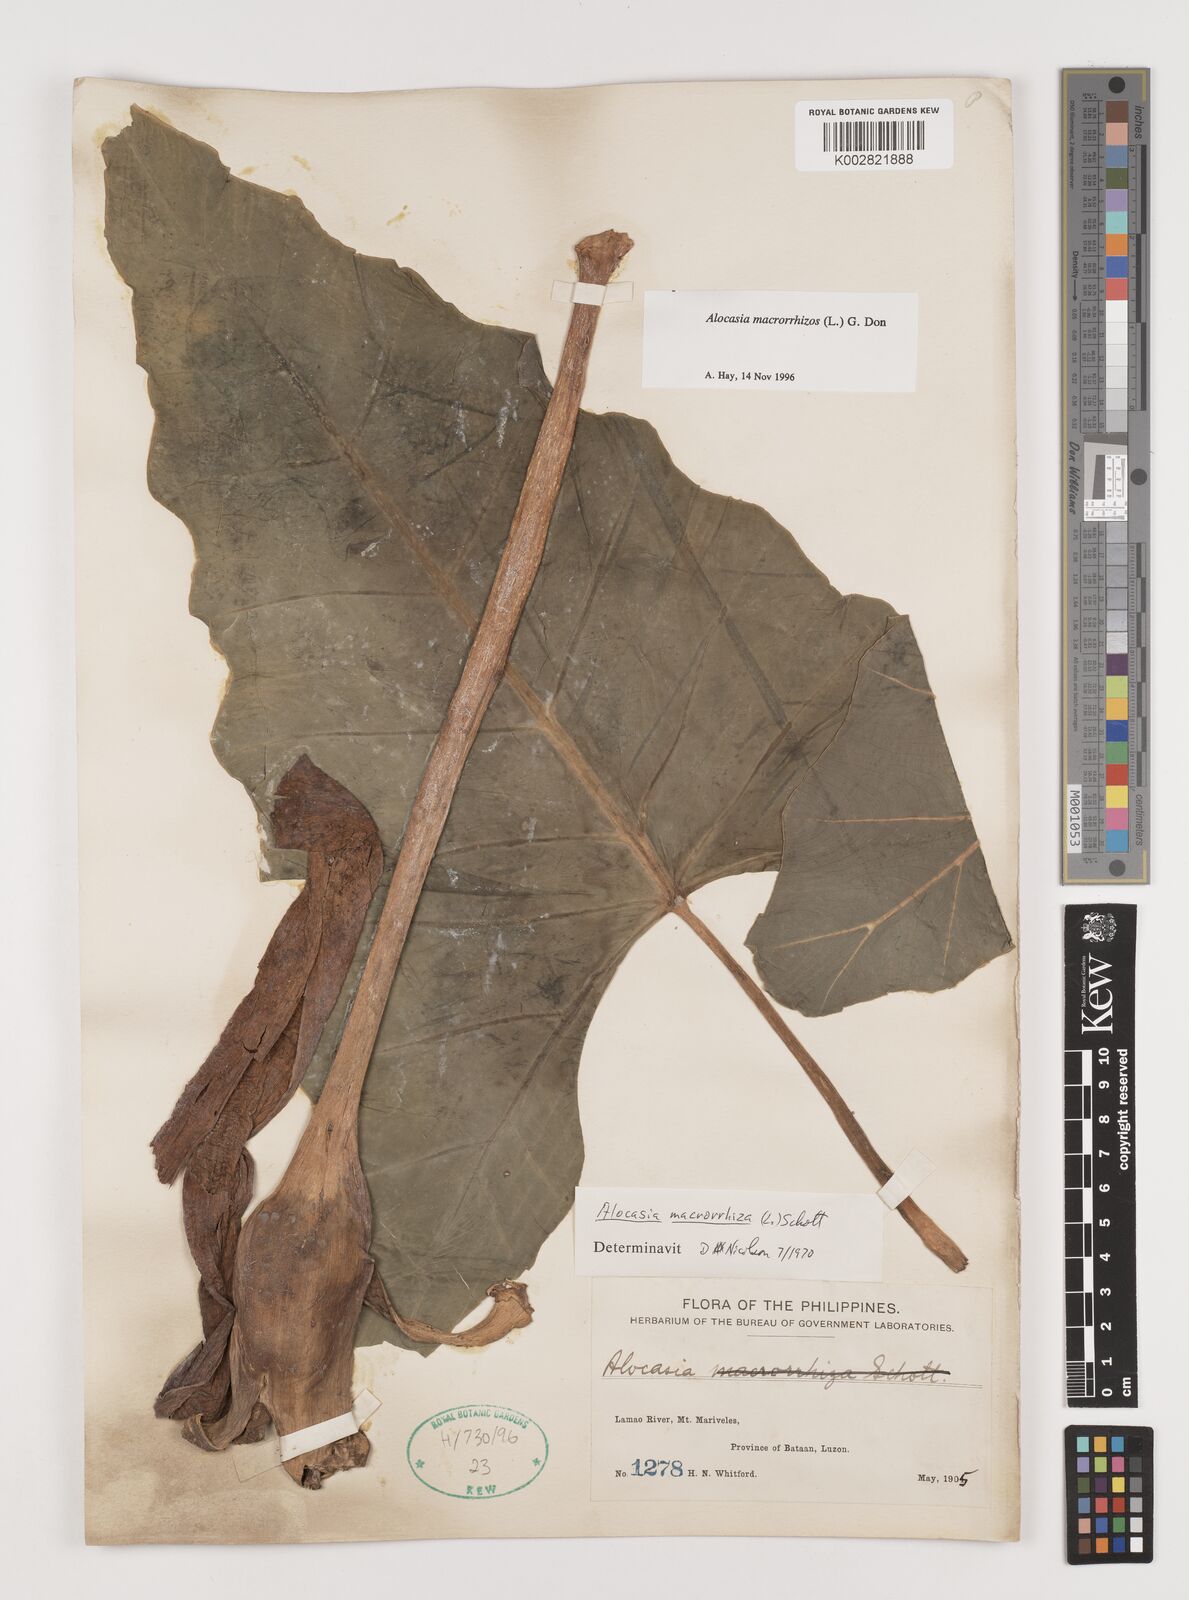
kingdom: Plantae
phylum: Tracheophyta
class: Liliopsida
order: Alismatales
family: Araceae
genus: Alocasia
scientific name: Alocasia macrorrhizos
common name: Giant taro
